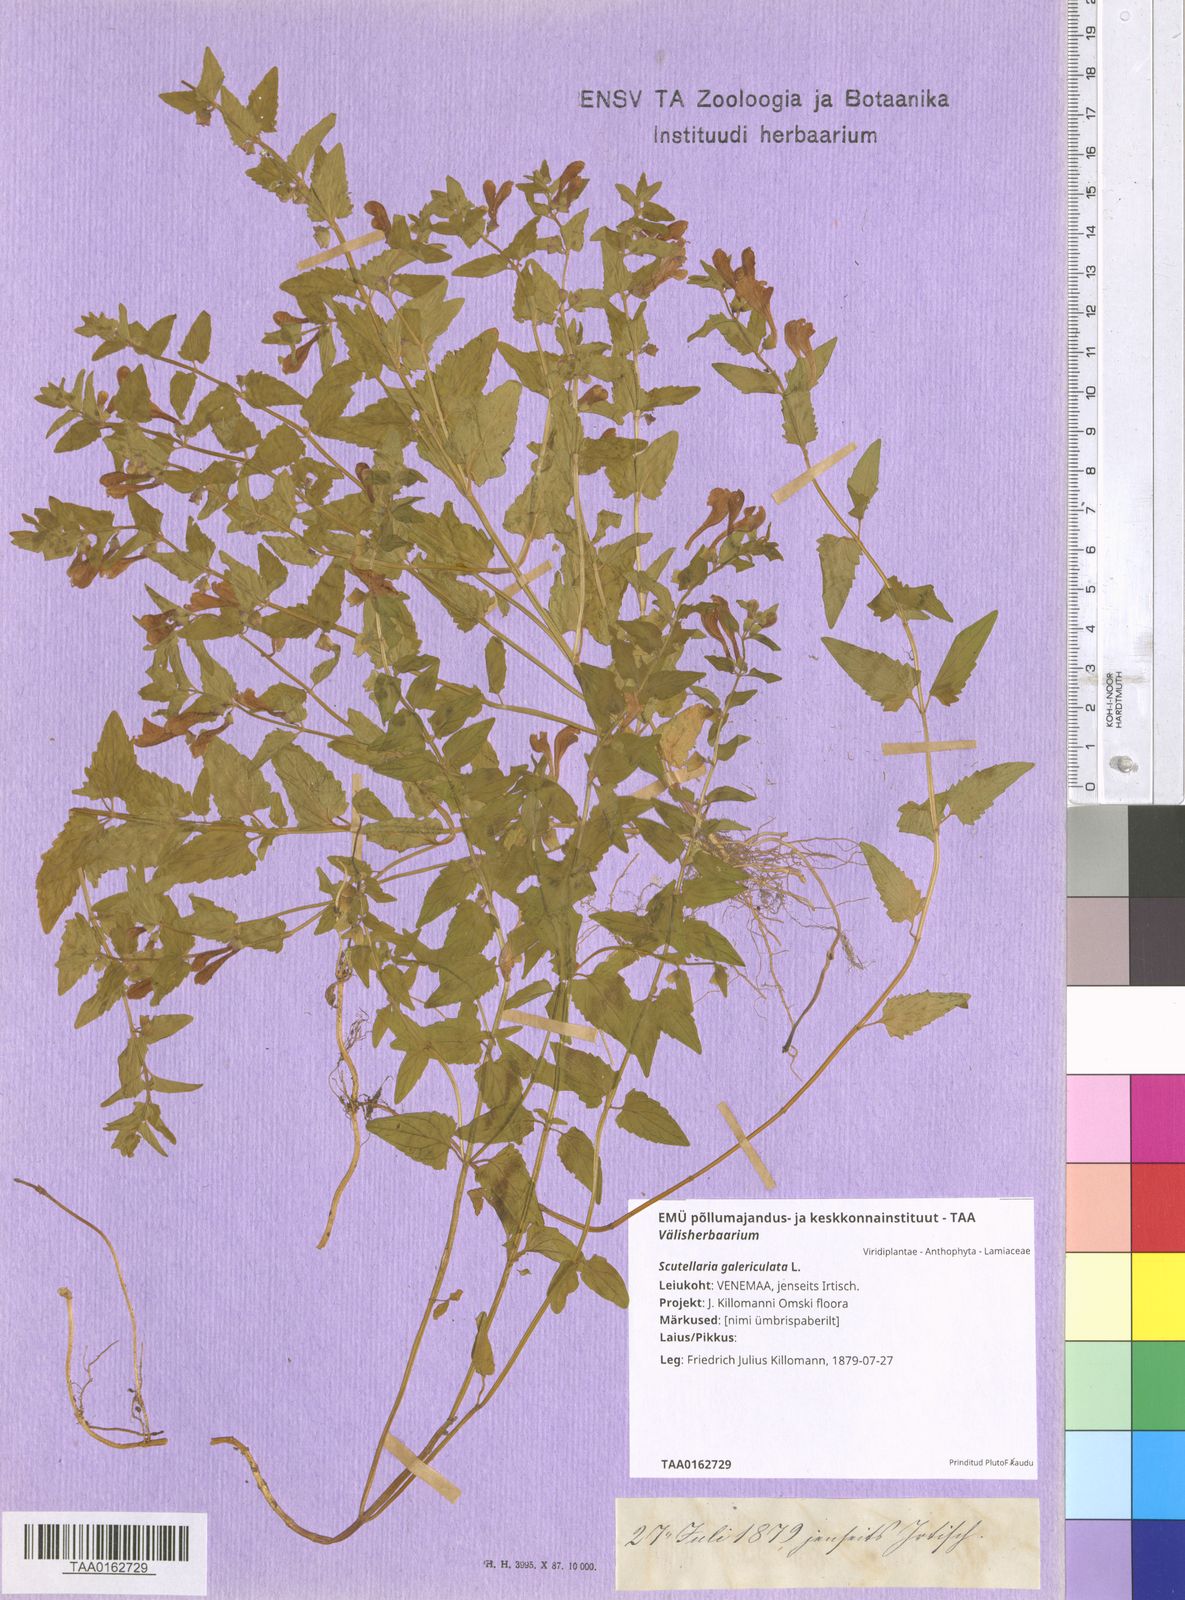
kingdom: Plantae
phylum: Tracheophyta
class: Magnoliopsida
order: Lamiales
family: Lamiaceae
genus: Scutellaria
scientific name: Scutellaria galericulata
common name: Skullcap
